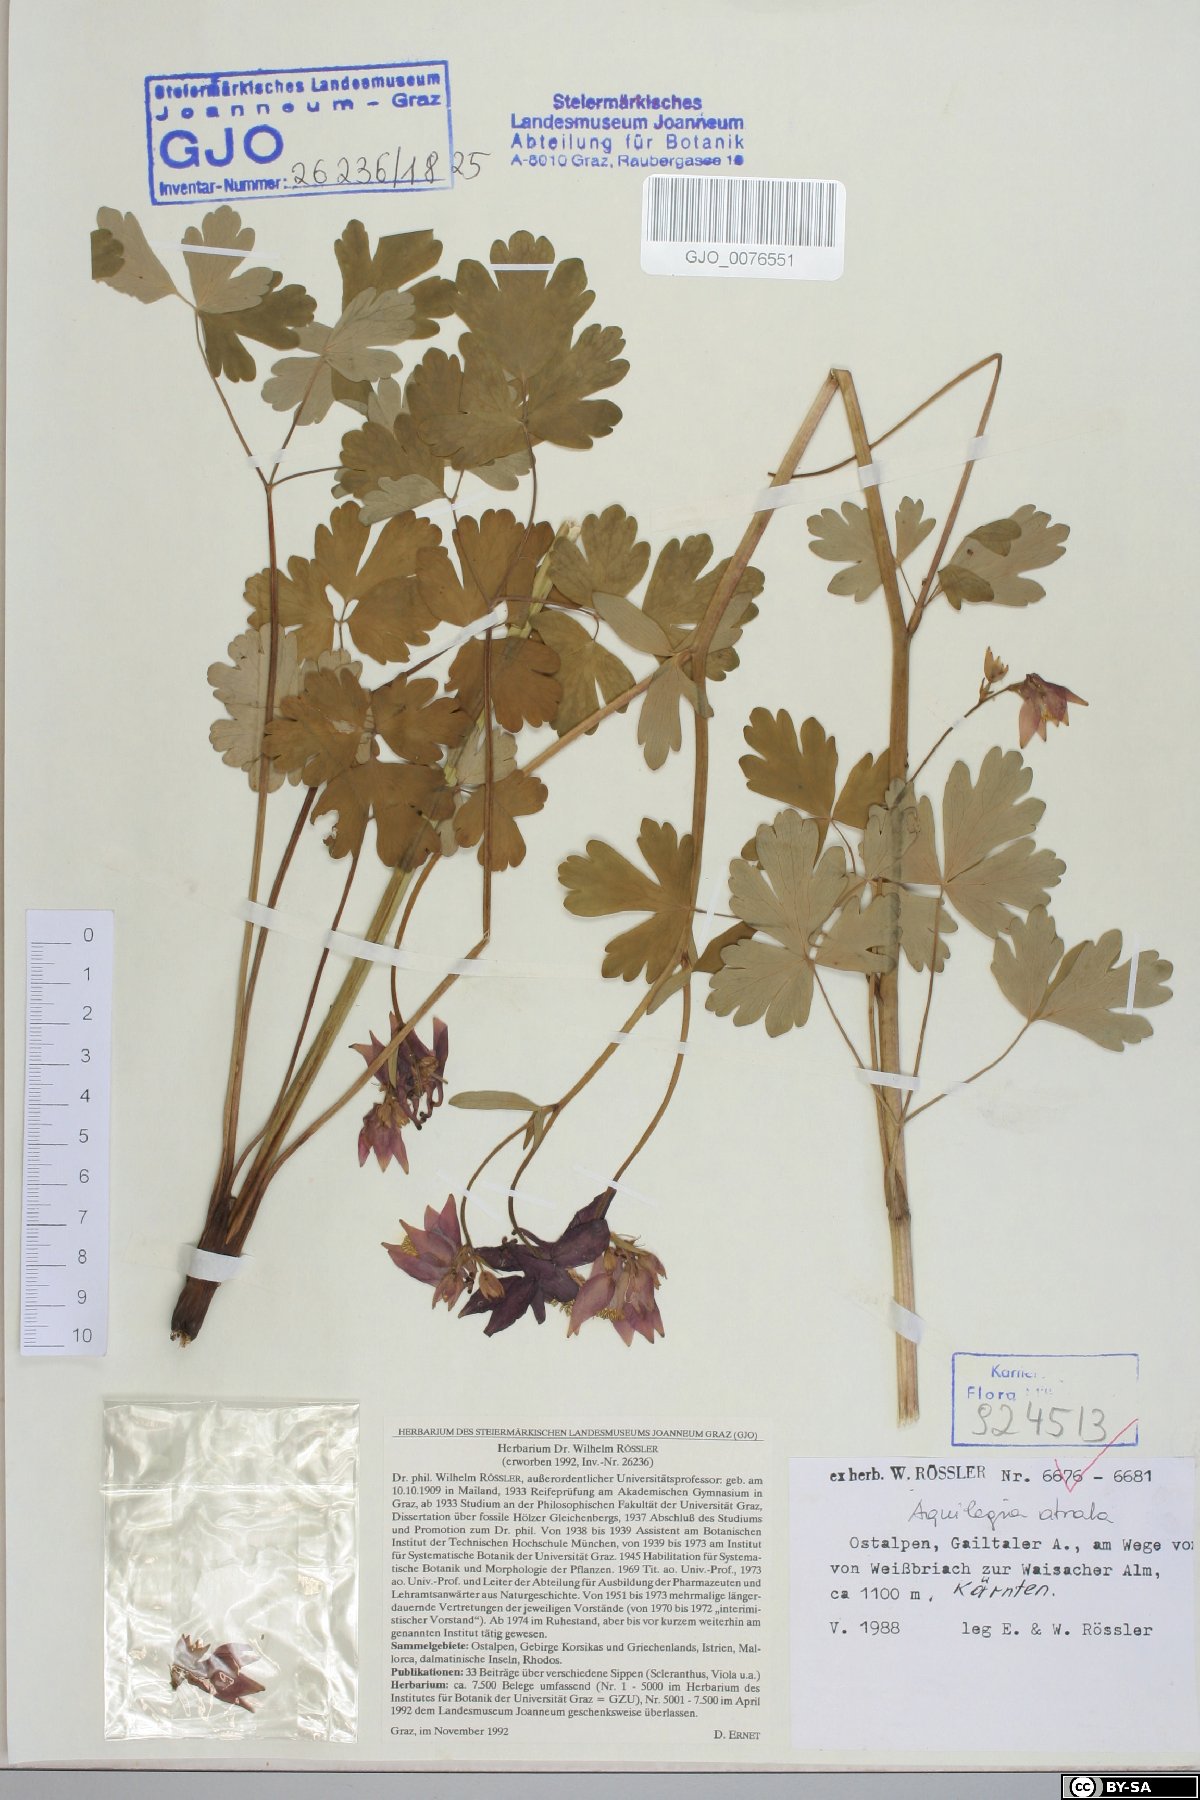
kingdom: Plantae
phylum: Tracheophyta
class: Magnoliopsida
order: Ranunculales
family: Ranunculaceae
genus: Aquilegia
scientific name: Aquilegia atrata
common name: Dark columbine
